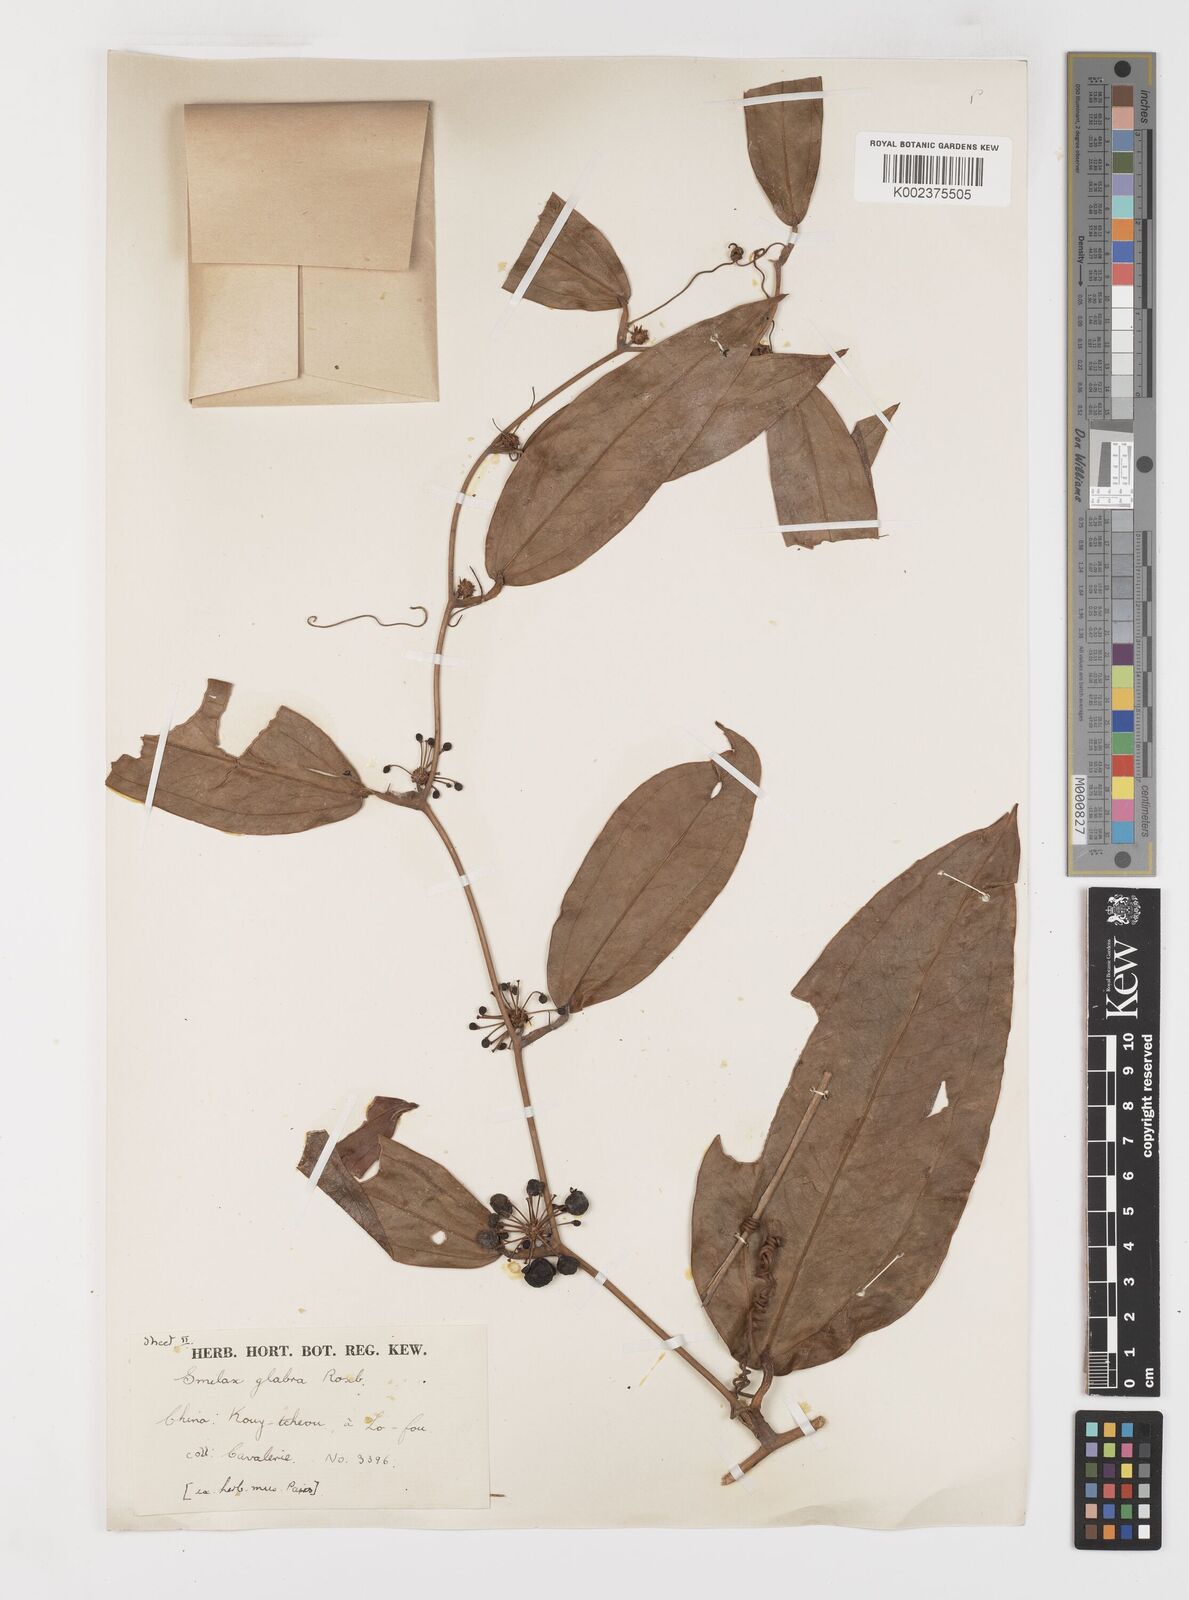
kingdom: Plantae
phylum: Tracheophyta
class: Liliopsida
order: Liliales
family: Smilacaceae
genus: Smilax
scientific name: Smilax glabra
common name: Chinese smilax
